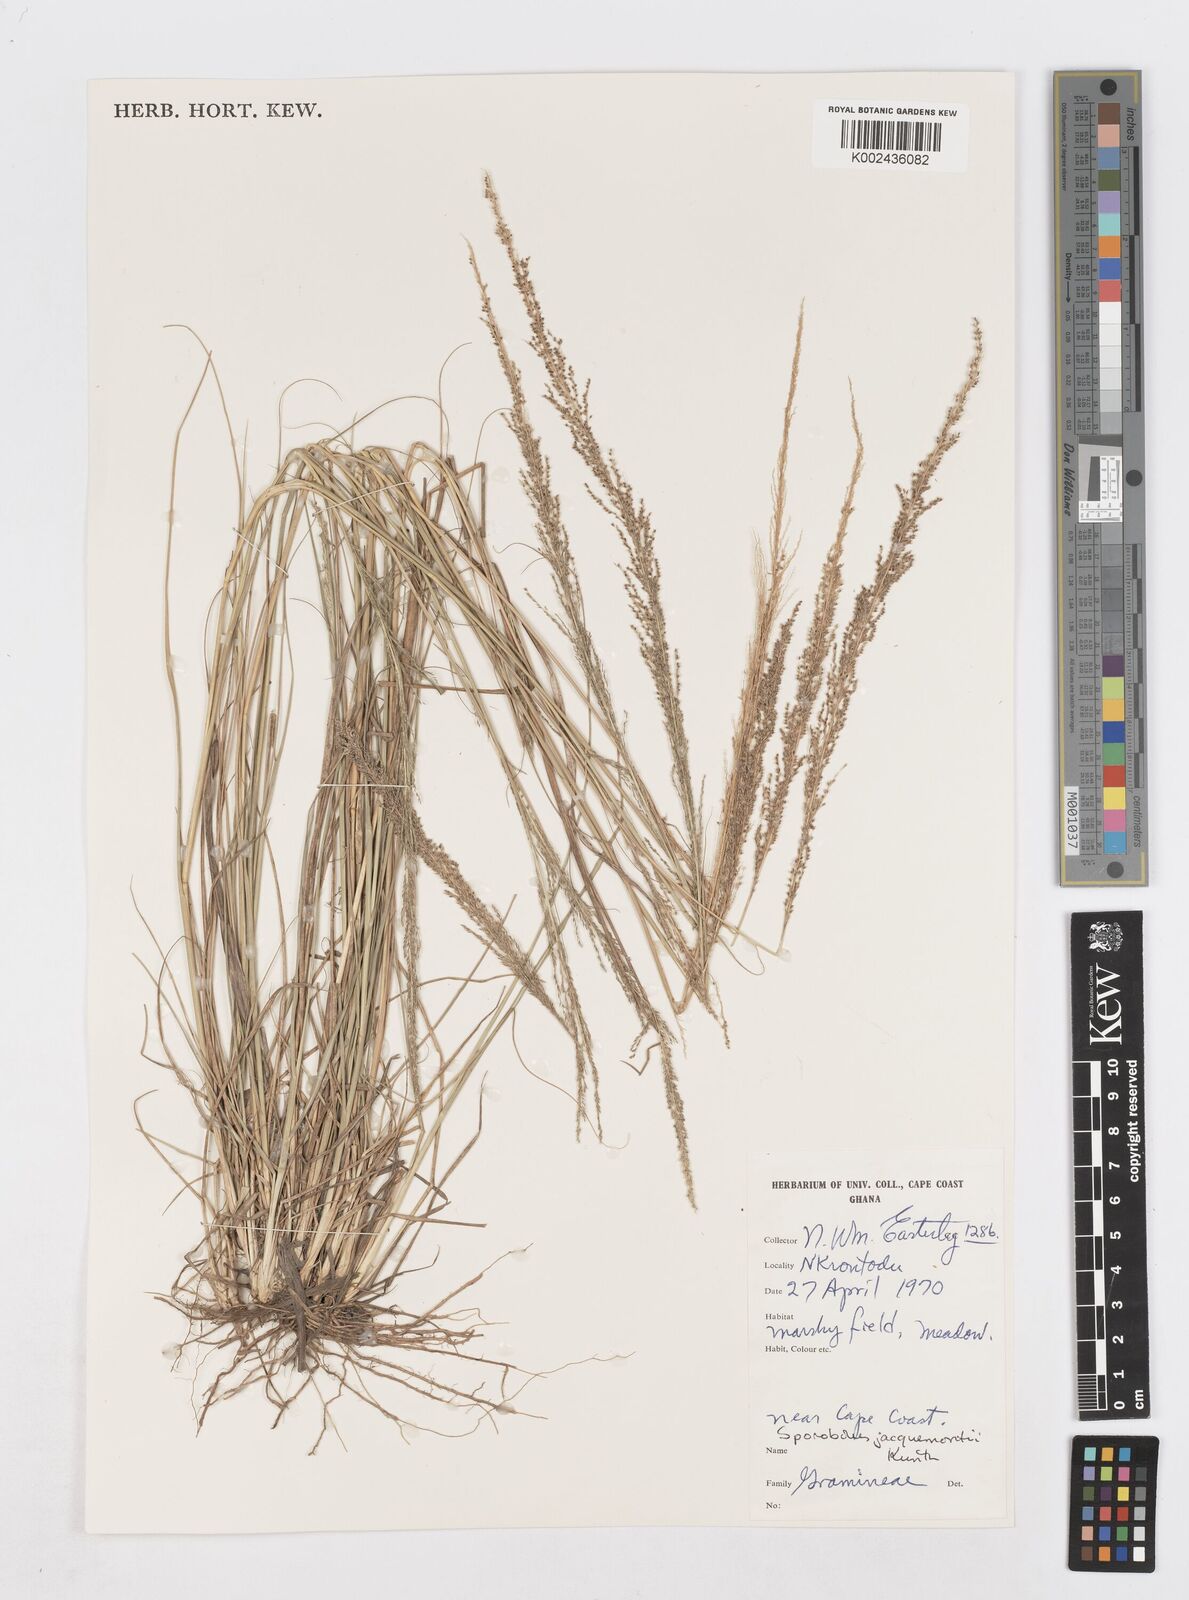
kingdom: Plantae
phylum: Tracheophyta
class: Liliopsida
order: Poales
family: Poaceae
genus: Sporobolus
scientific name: Sporobolus pyramidalis
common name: West indian dropseed
